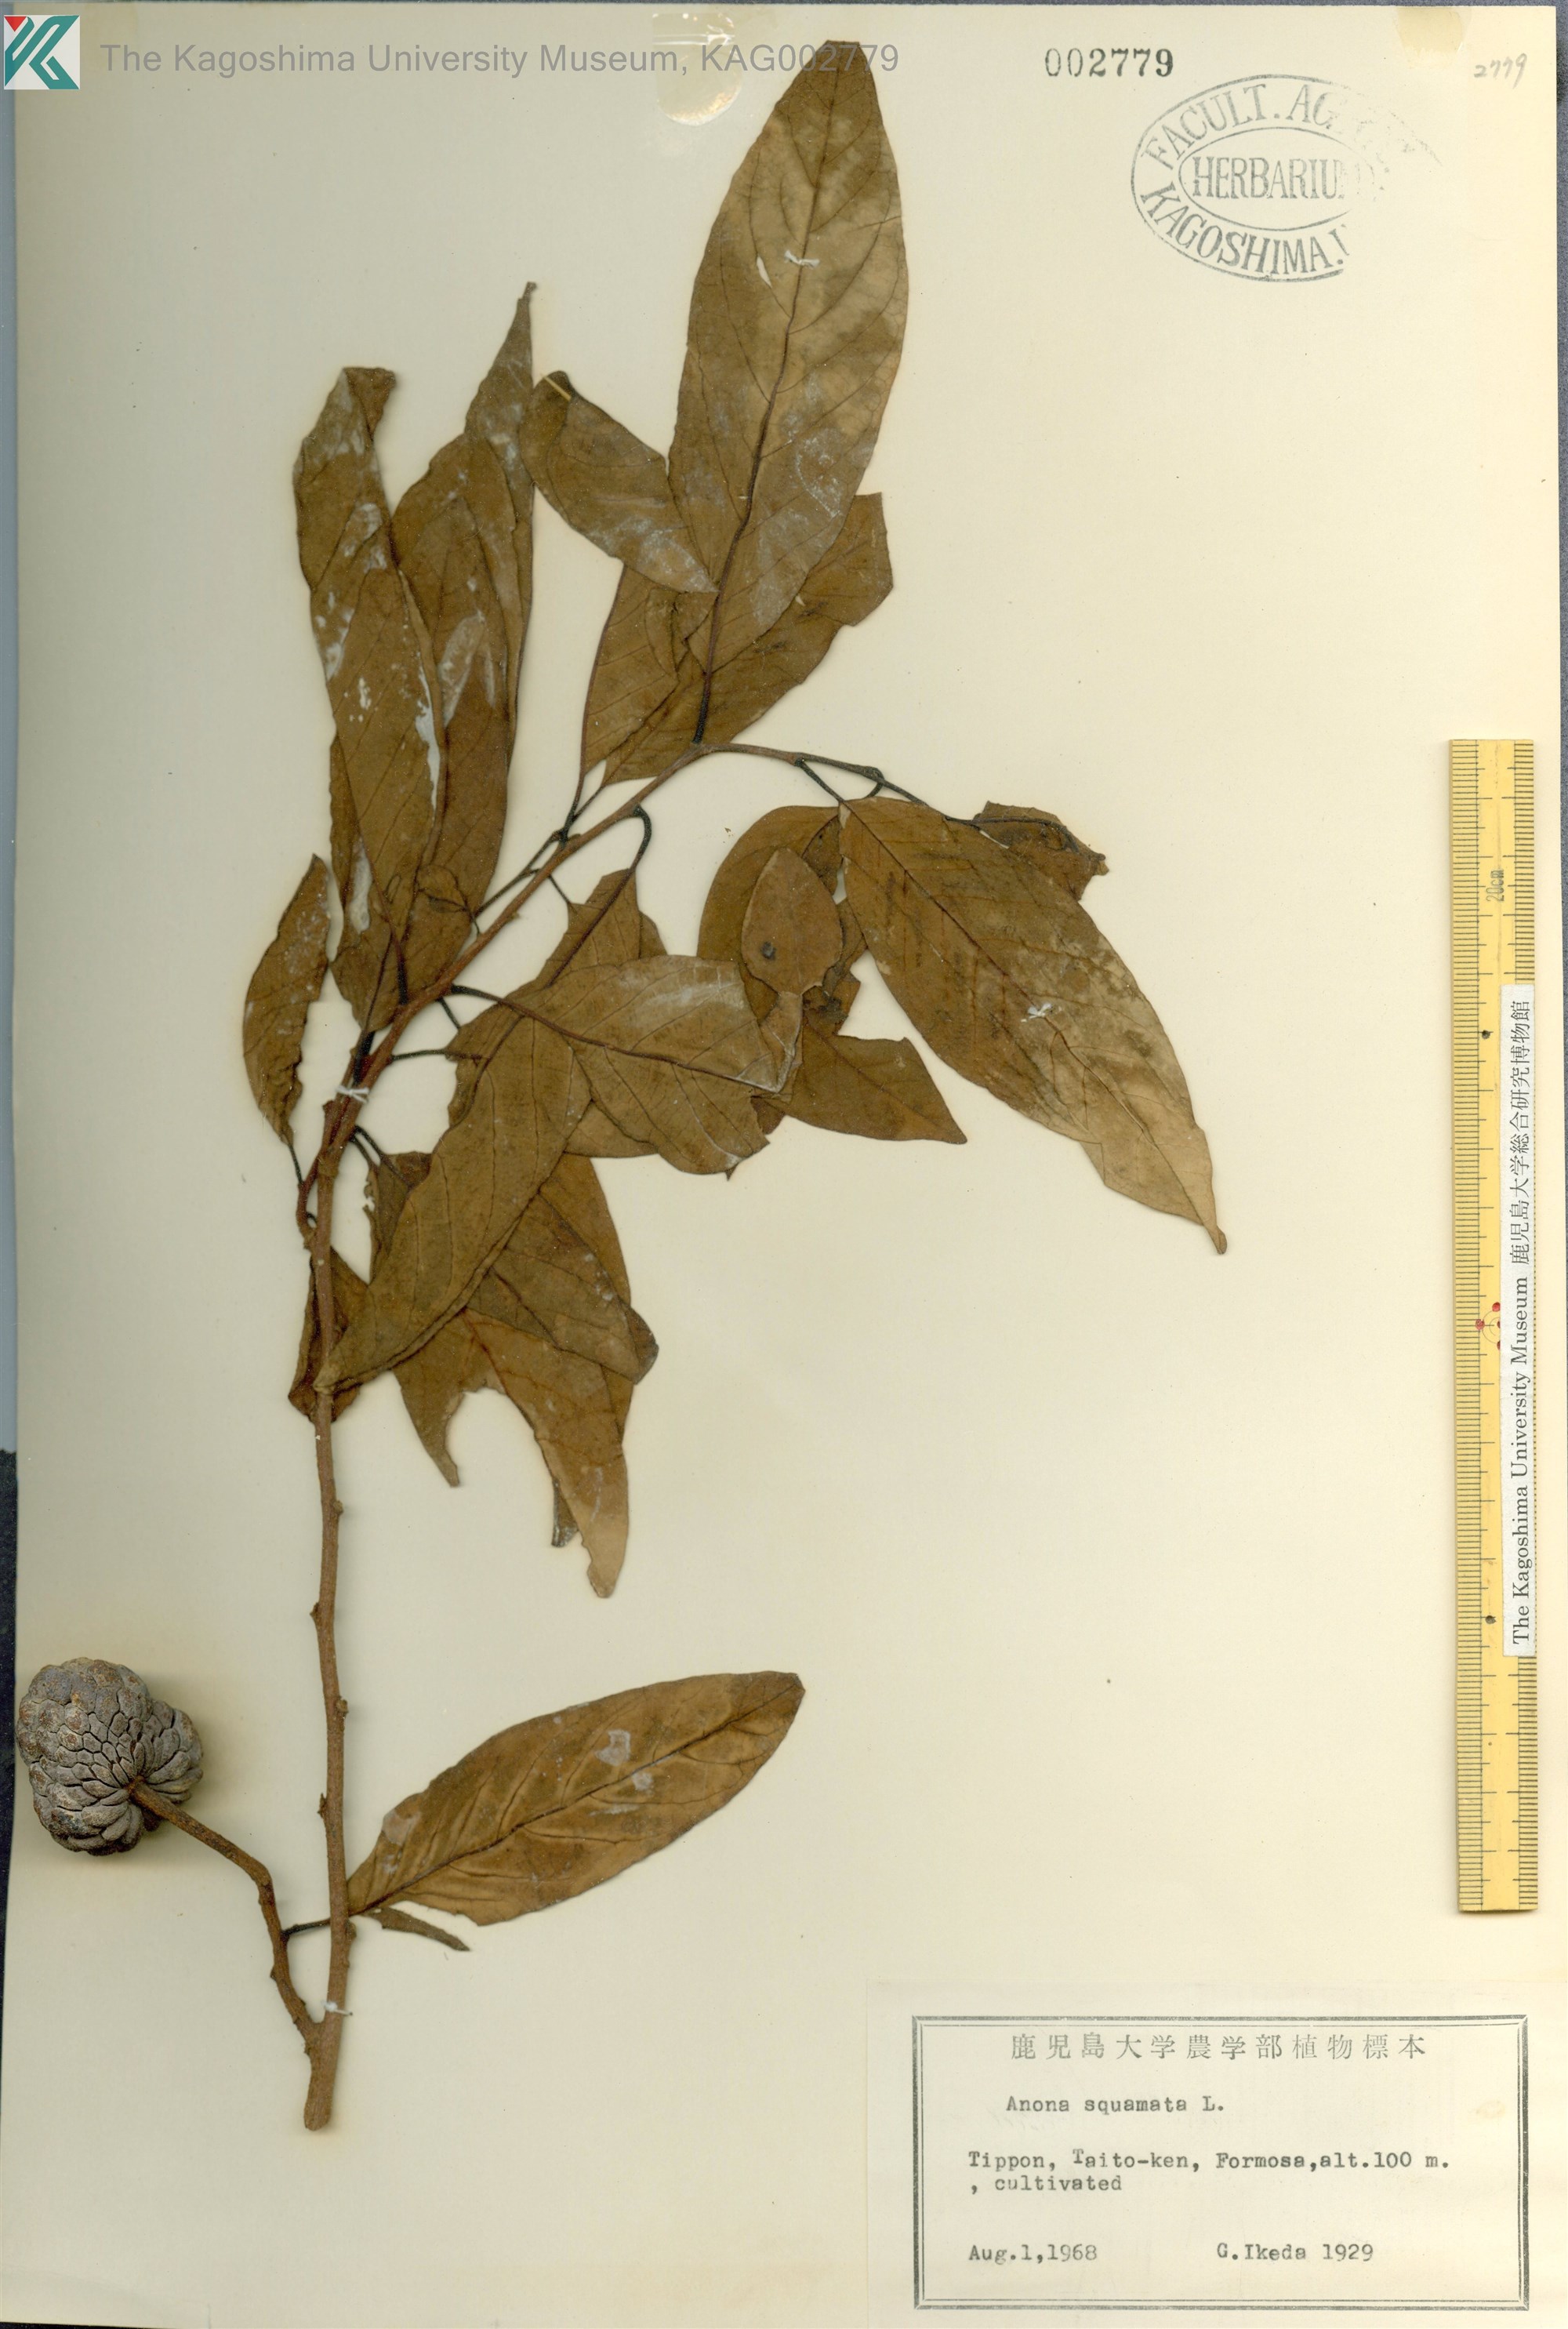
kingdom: Plantae
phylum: Tracheophyta
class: Magnoliopsida
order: Magnoliales
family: Annonaceae
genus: Annona
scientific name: Annona squamosa
